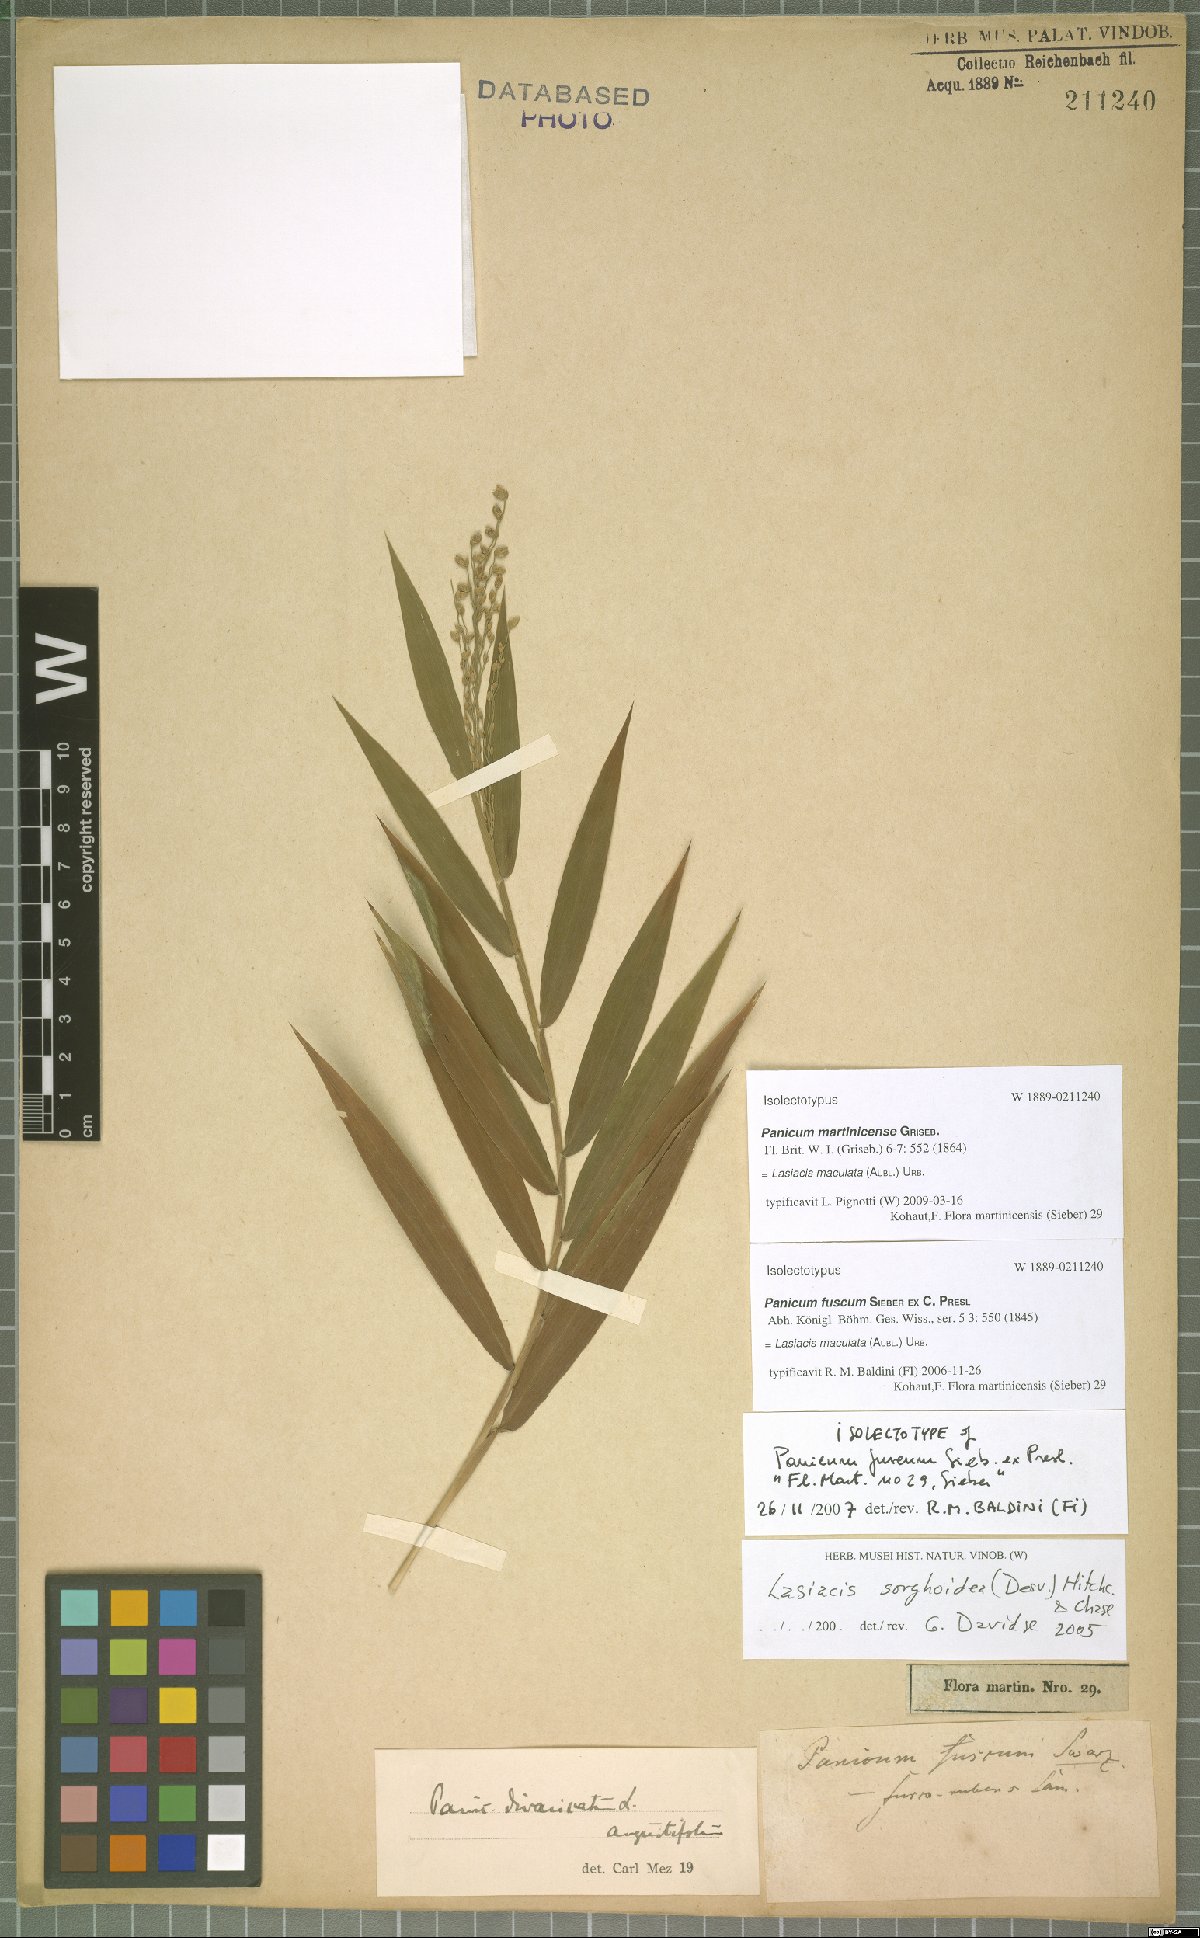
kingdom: Plantae
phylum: Tracheophyta
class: Liliopsida
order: Poales
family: Poaceae
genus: Lasiacis
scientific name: Lasiacis maculata
